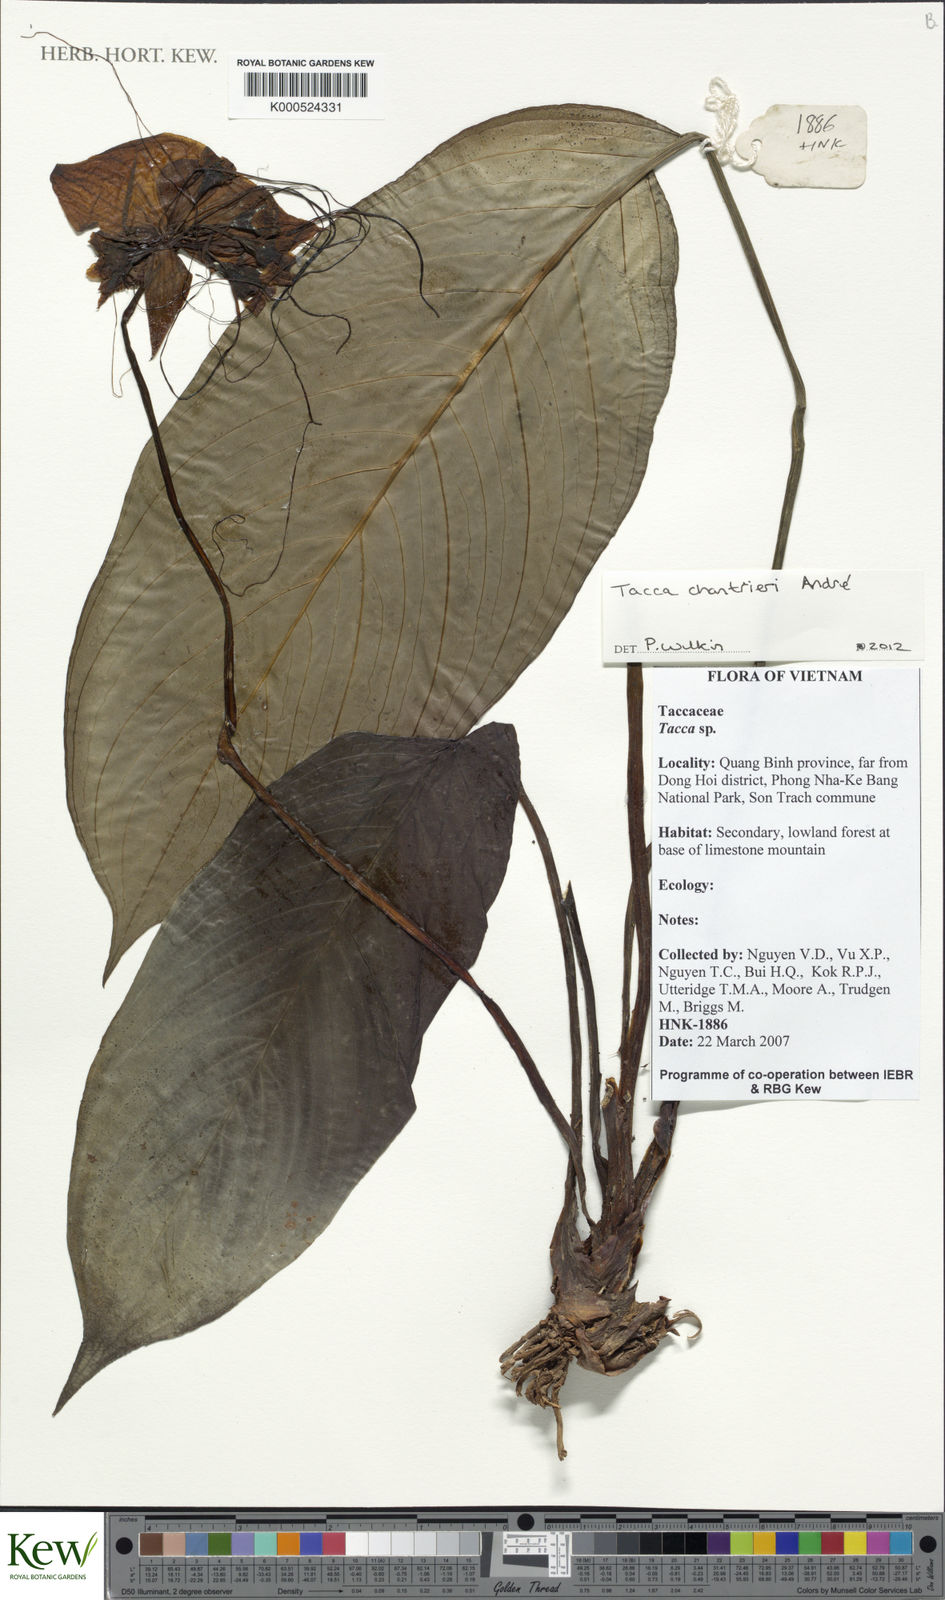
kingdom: Plantae
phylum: Tracheophyta
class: Liliopsida
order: Dioscoreales
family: Dioscoreaceae
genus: Tacca
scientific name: Tacca chantrieri
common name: Cat's-whiskers
